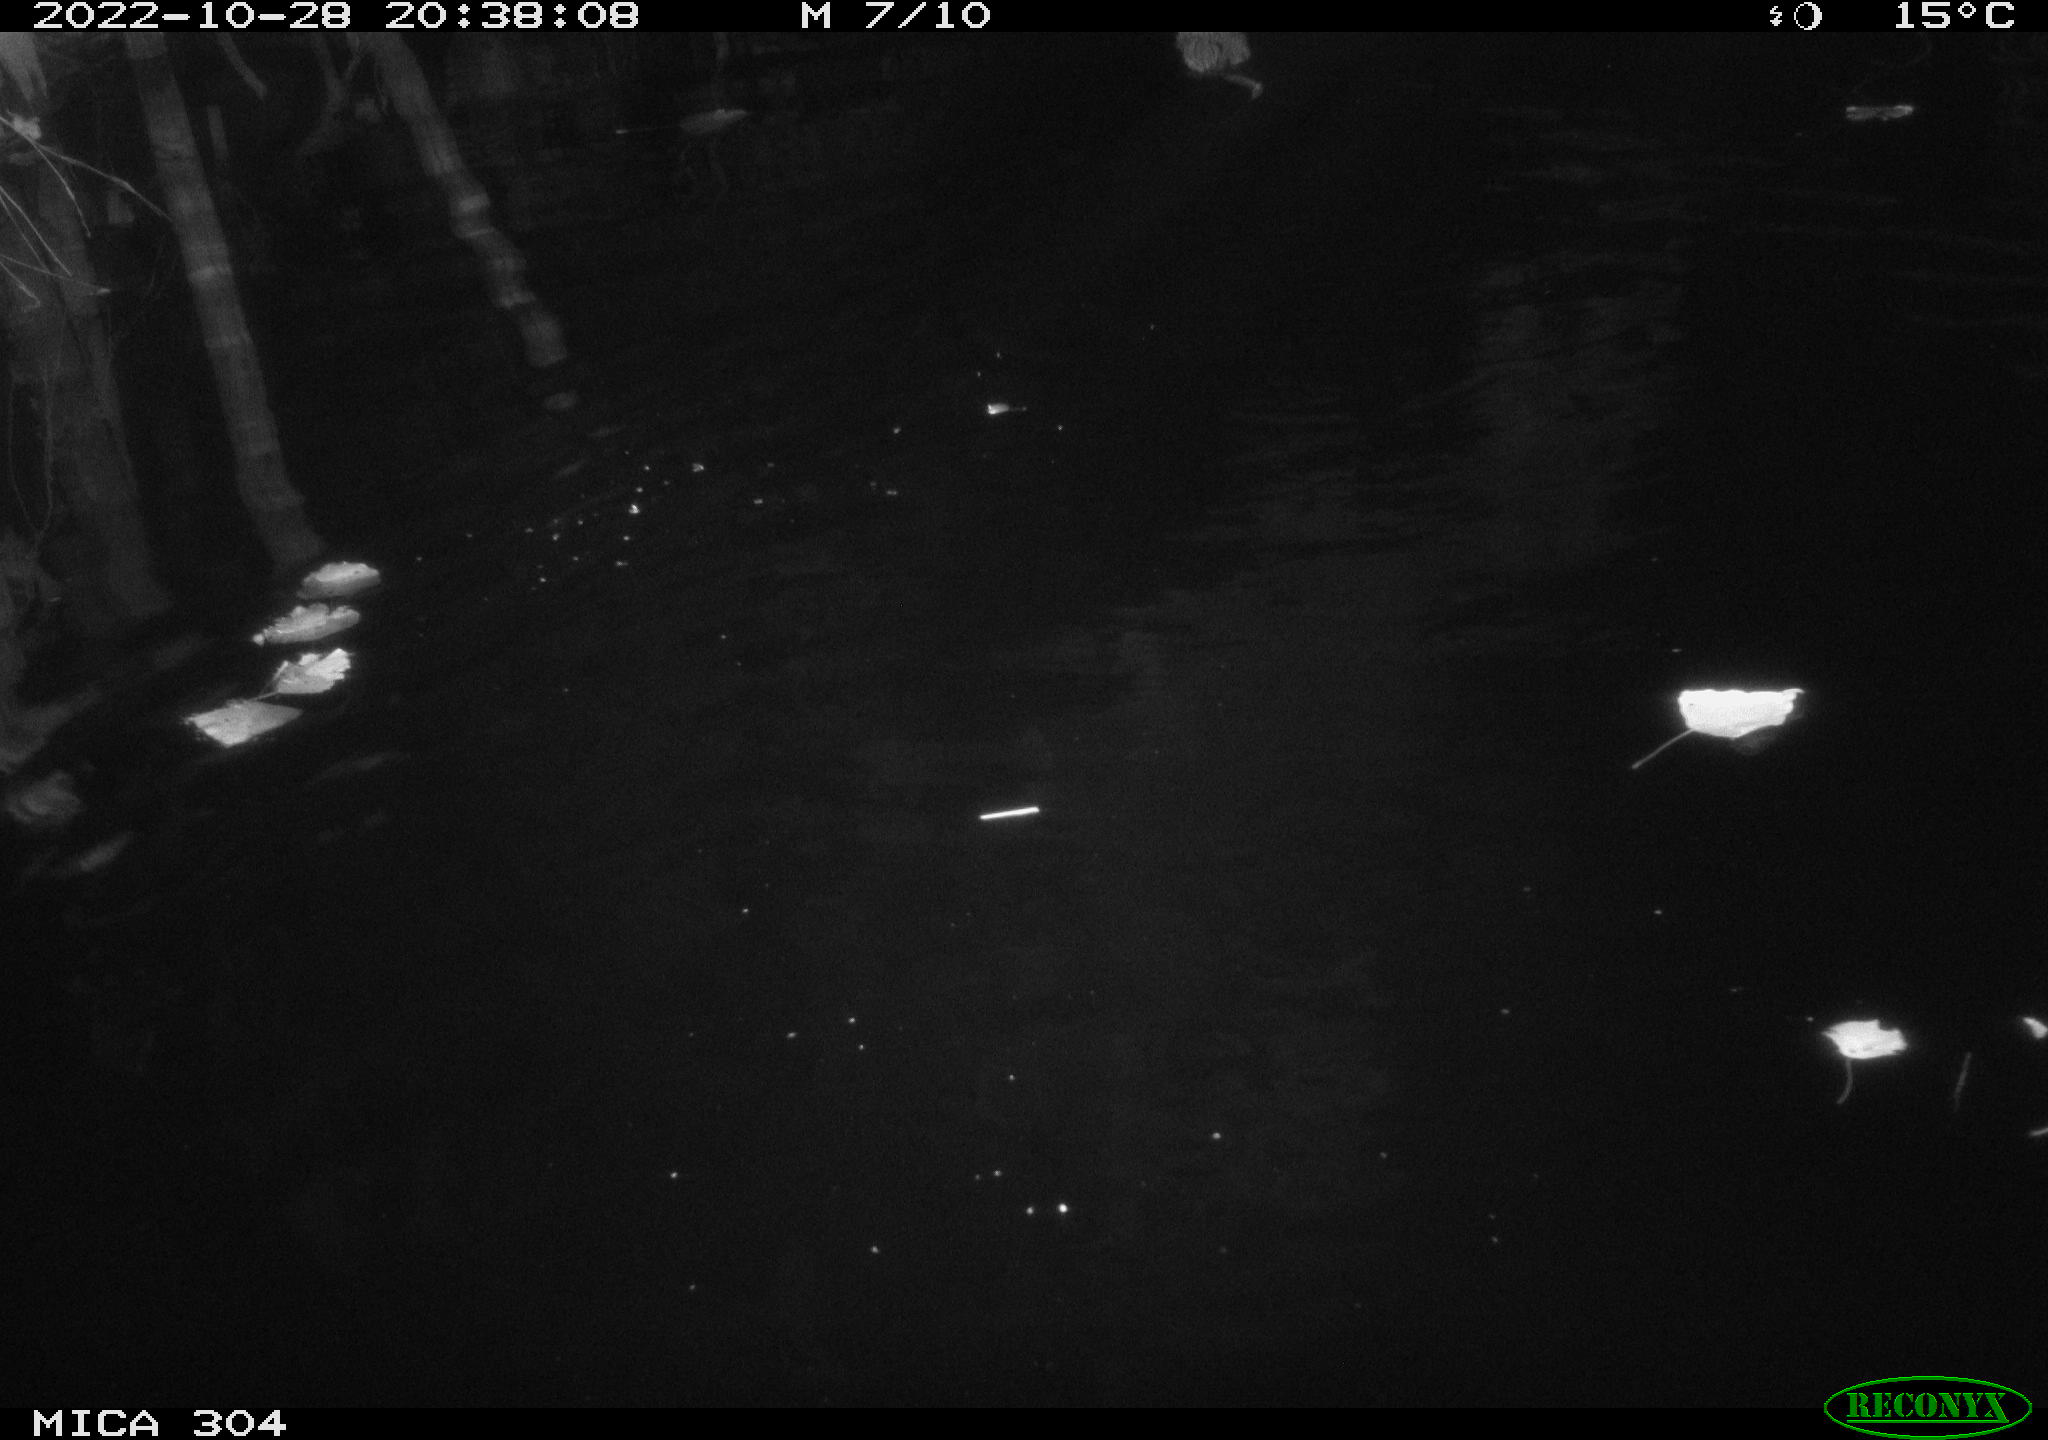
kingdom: Animalia
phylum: Chordata
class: Mammalia
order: Rodentia
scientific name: Rodentia
